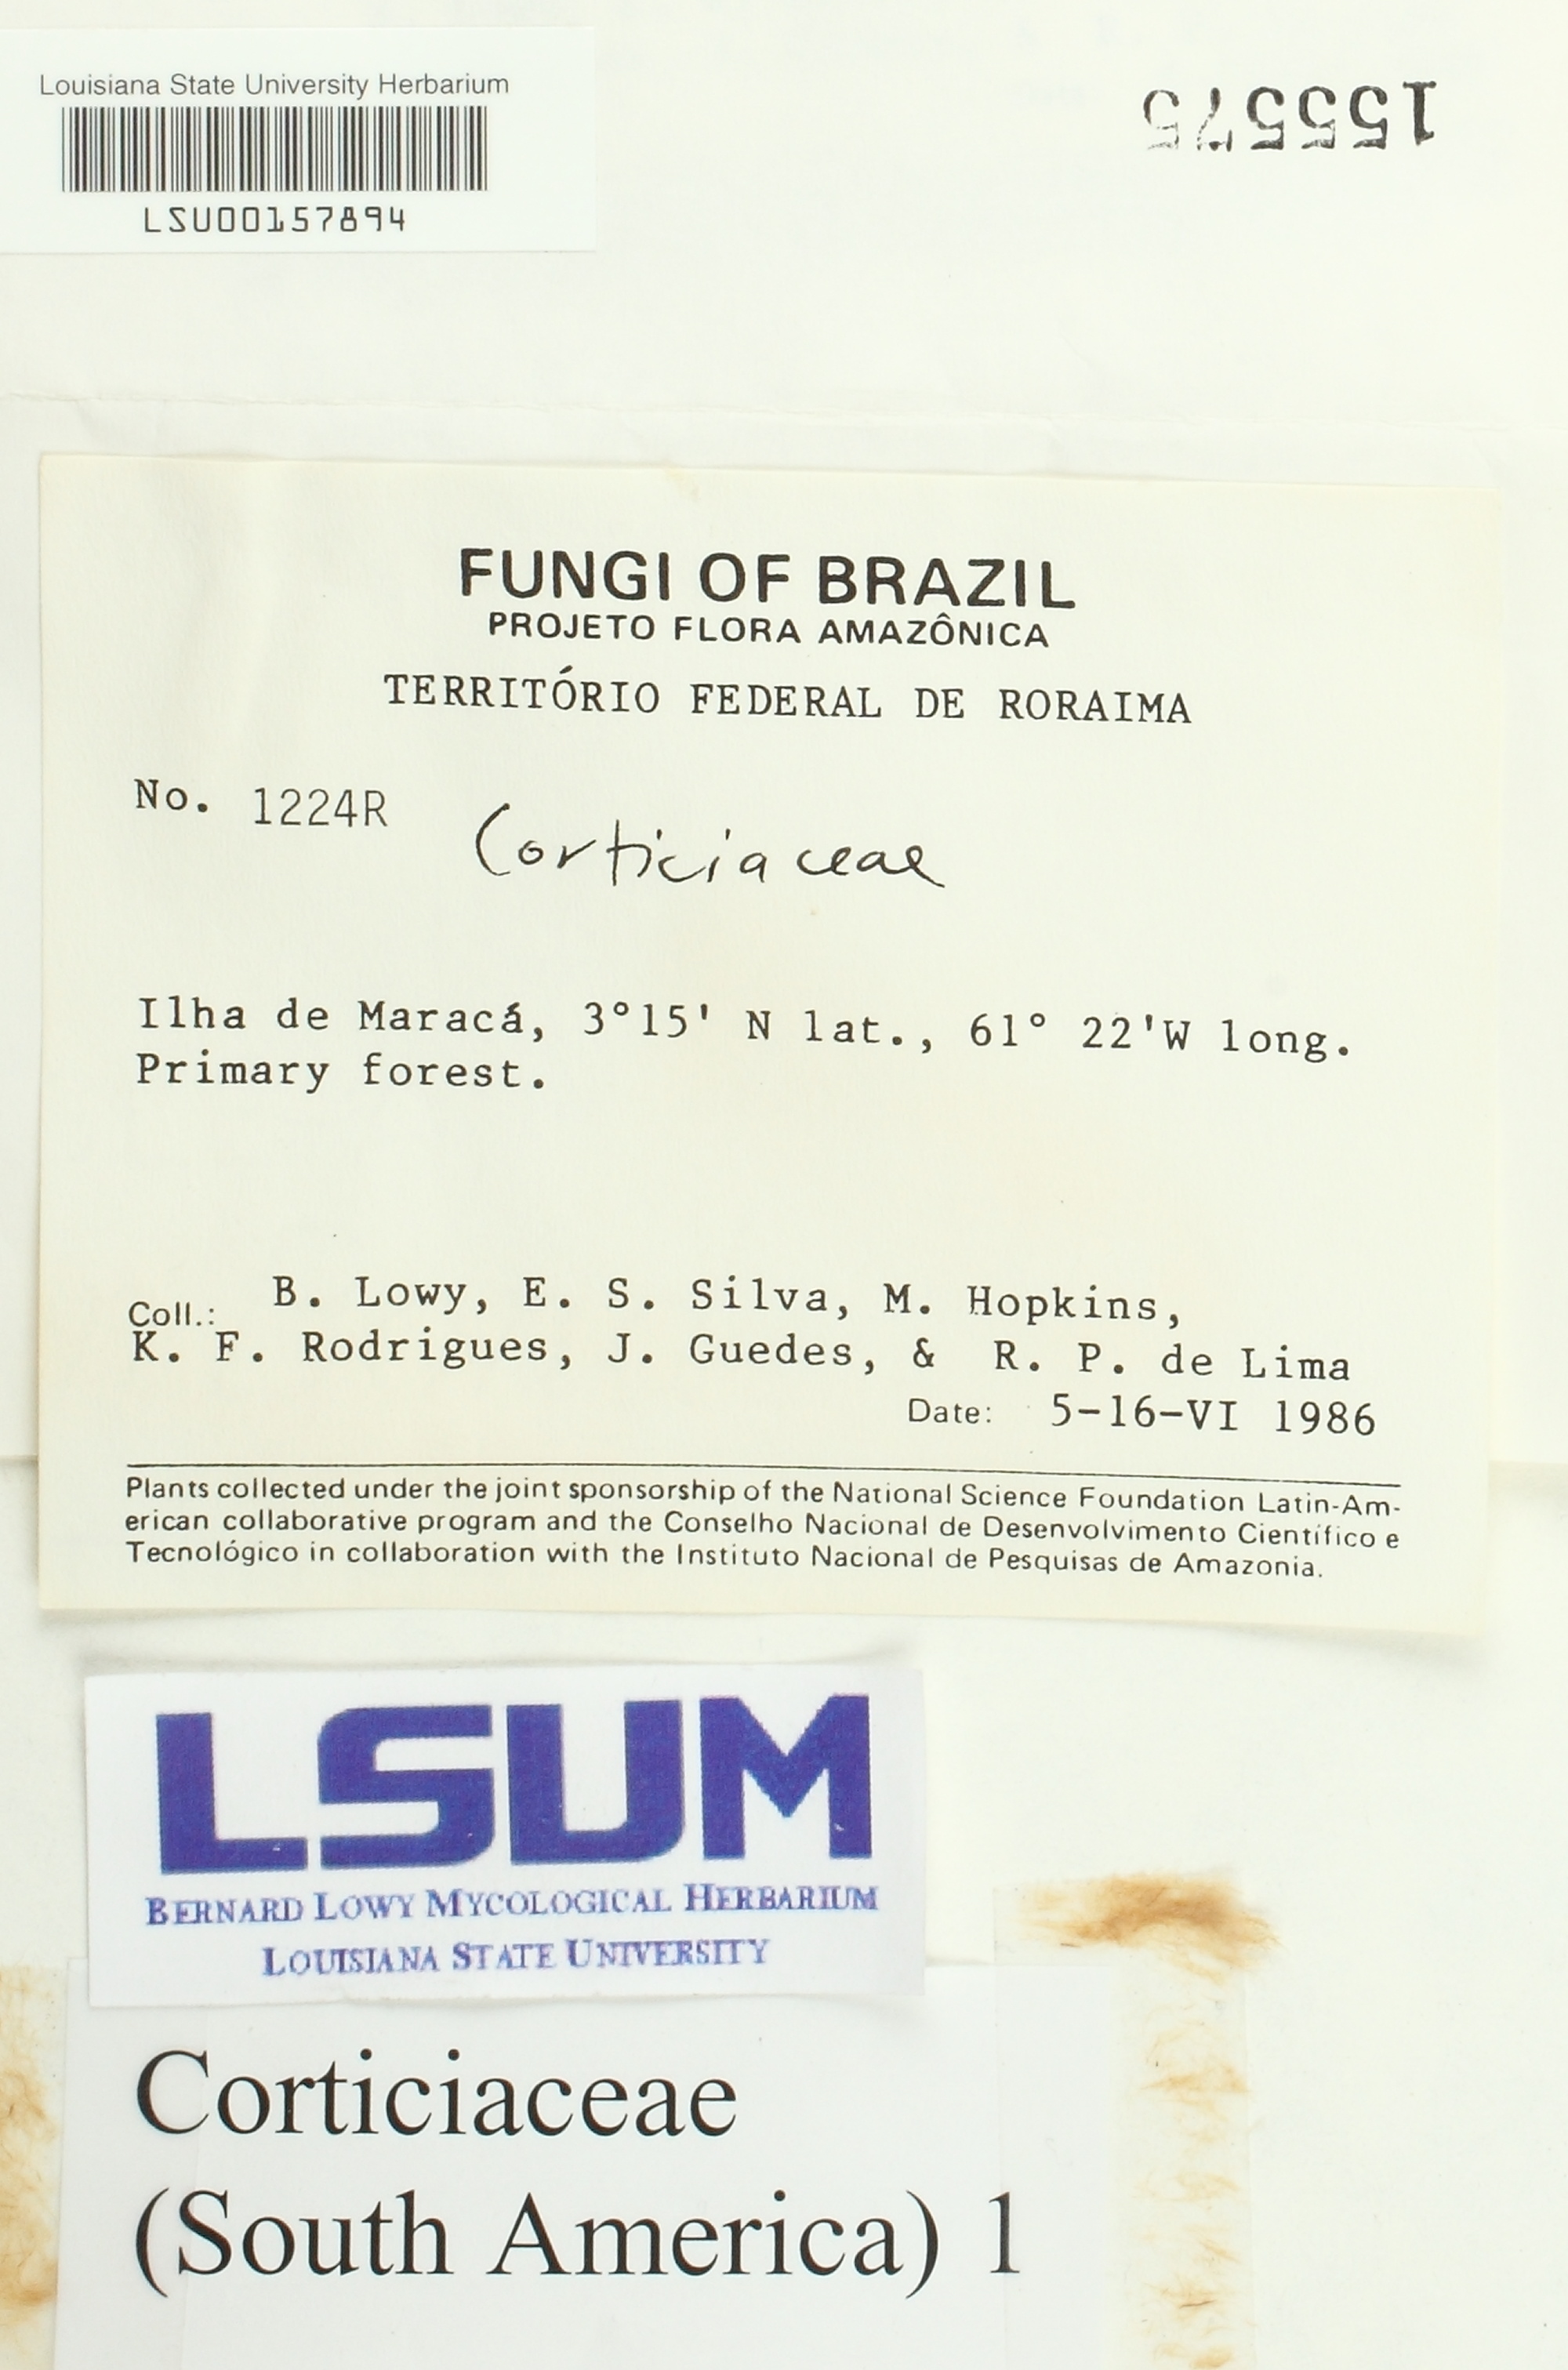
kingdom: Fungi
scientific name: Fungi
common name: Fungi
